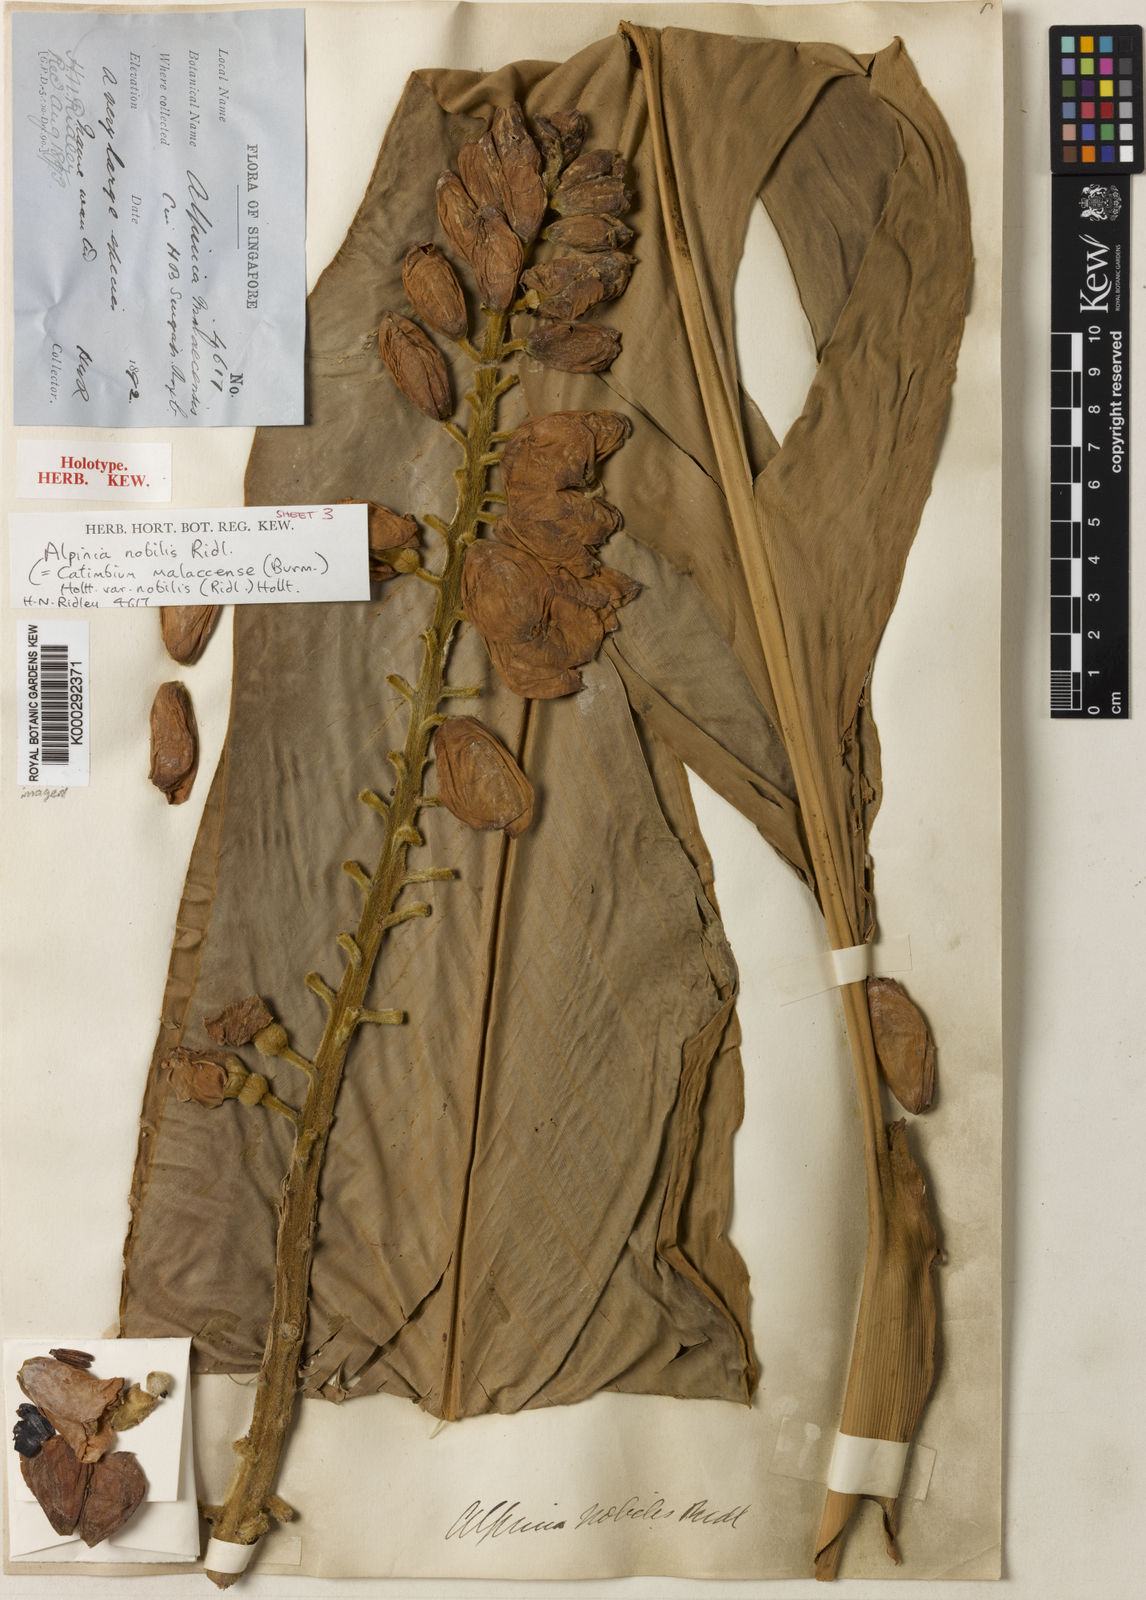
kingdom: Plantae
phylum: Tracheophyta
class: Liliopsida
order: Zingiberales
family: Zingiberaceae
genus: Alpinia
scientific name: Alpinia nobilis
